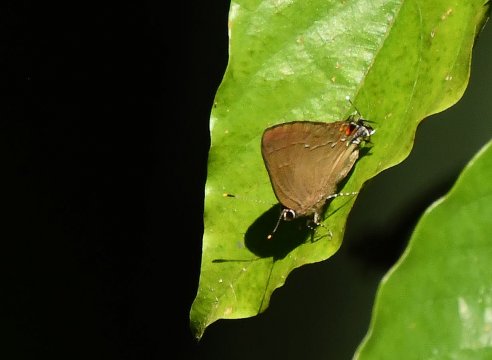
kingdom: Animalia
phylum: Arthropoda
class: Insecta
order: Lepidoptera
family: Lycaenidae
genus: Camissecla
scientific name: Camissecla melma
